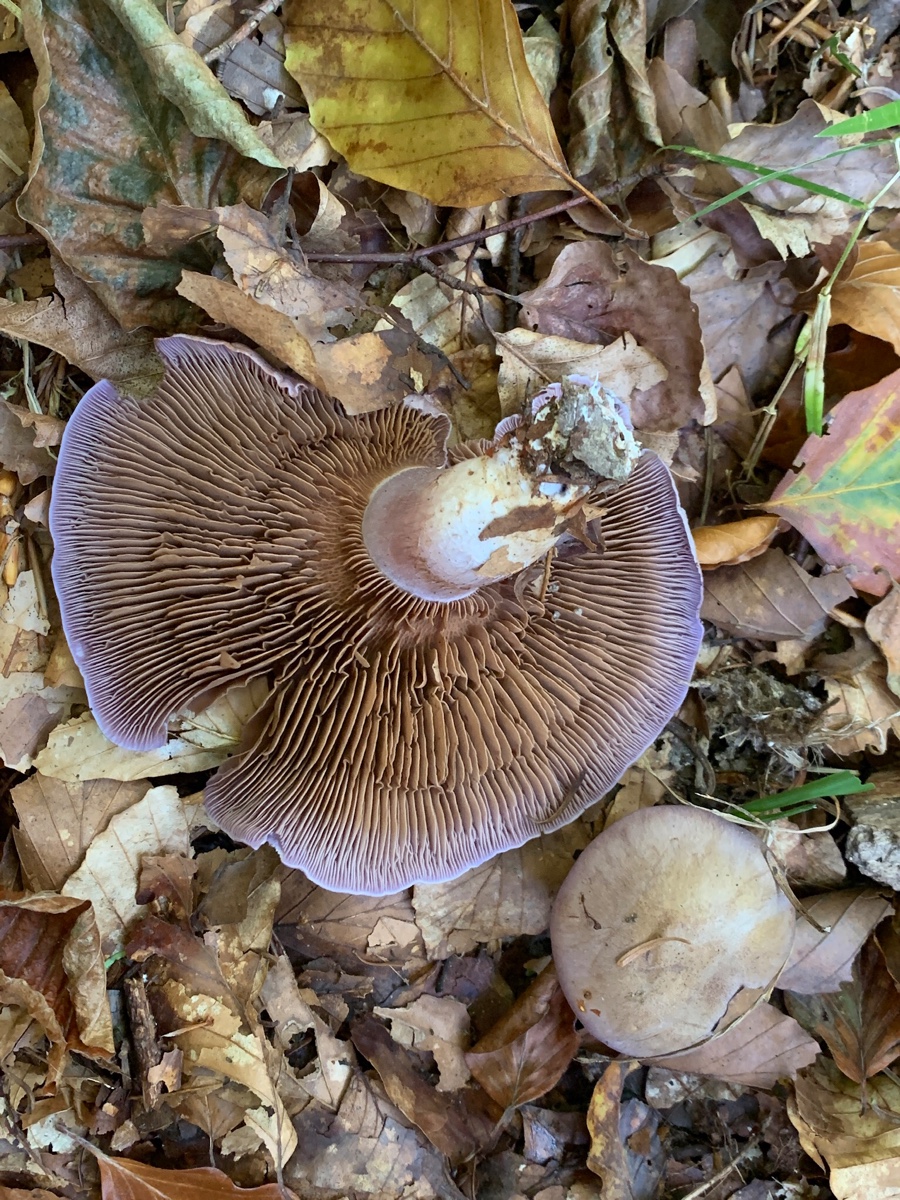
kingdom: Fungi
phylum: Basidiomycota
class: Agaricomycetes
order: Agaricales
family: Cortinariaceae
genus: Cortinarius
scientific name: Cortinarius largus
